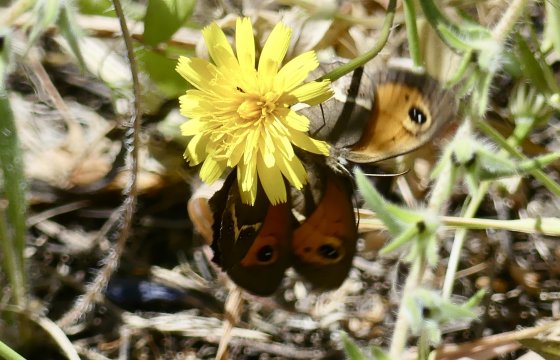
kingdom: Animalia
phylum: Arthropoda
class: Insecta
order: Lepidoptera
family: Nymphalidae
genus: Pyronia
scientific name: Pyronia bathseba
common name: Spanish Gatekeeper
